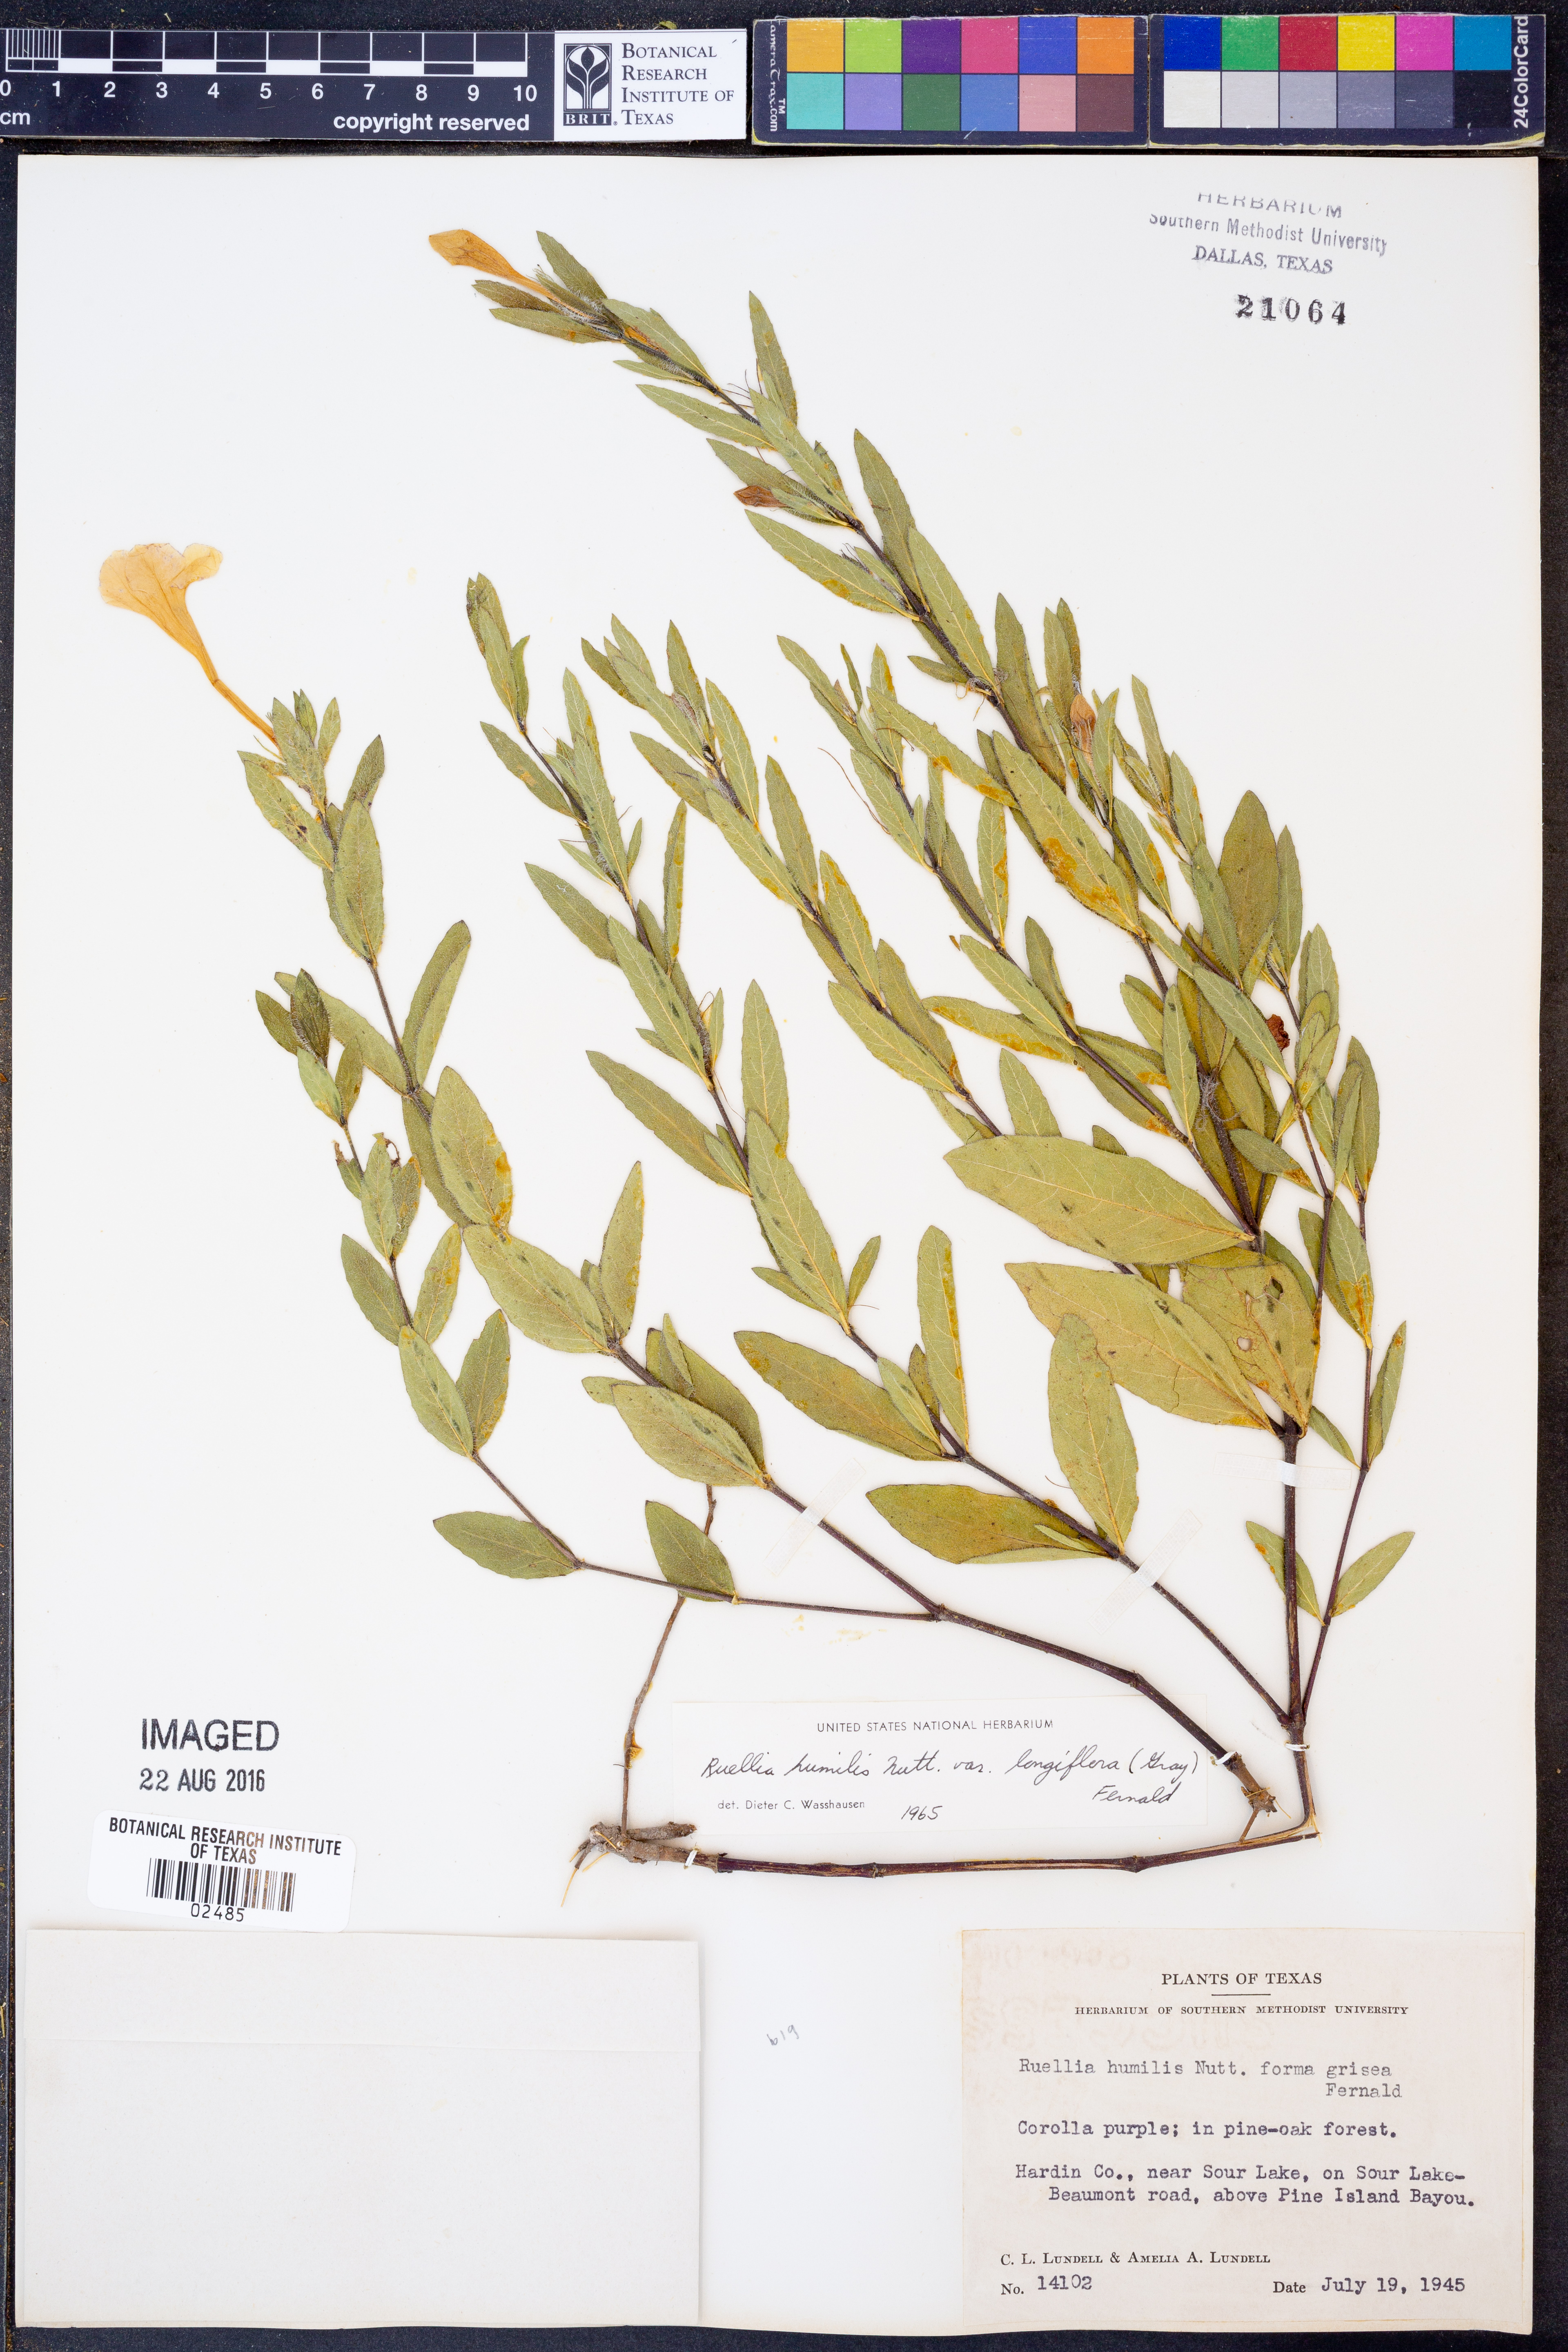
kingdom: Plantae
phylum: Tracheophyta
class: Magnoliopsida
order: Lamiales
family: Acanthaceae
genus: Ruellia
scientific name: Ruellia humilis
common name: Fringe-leaf ruellia
